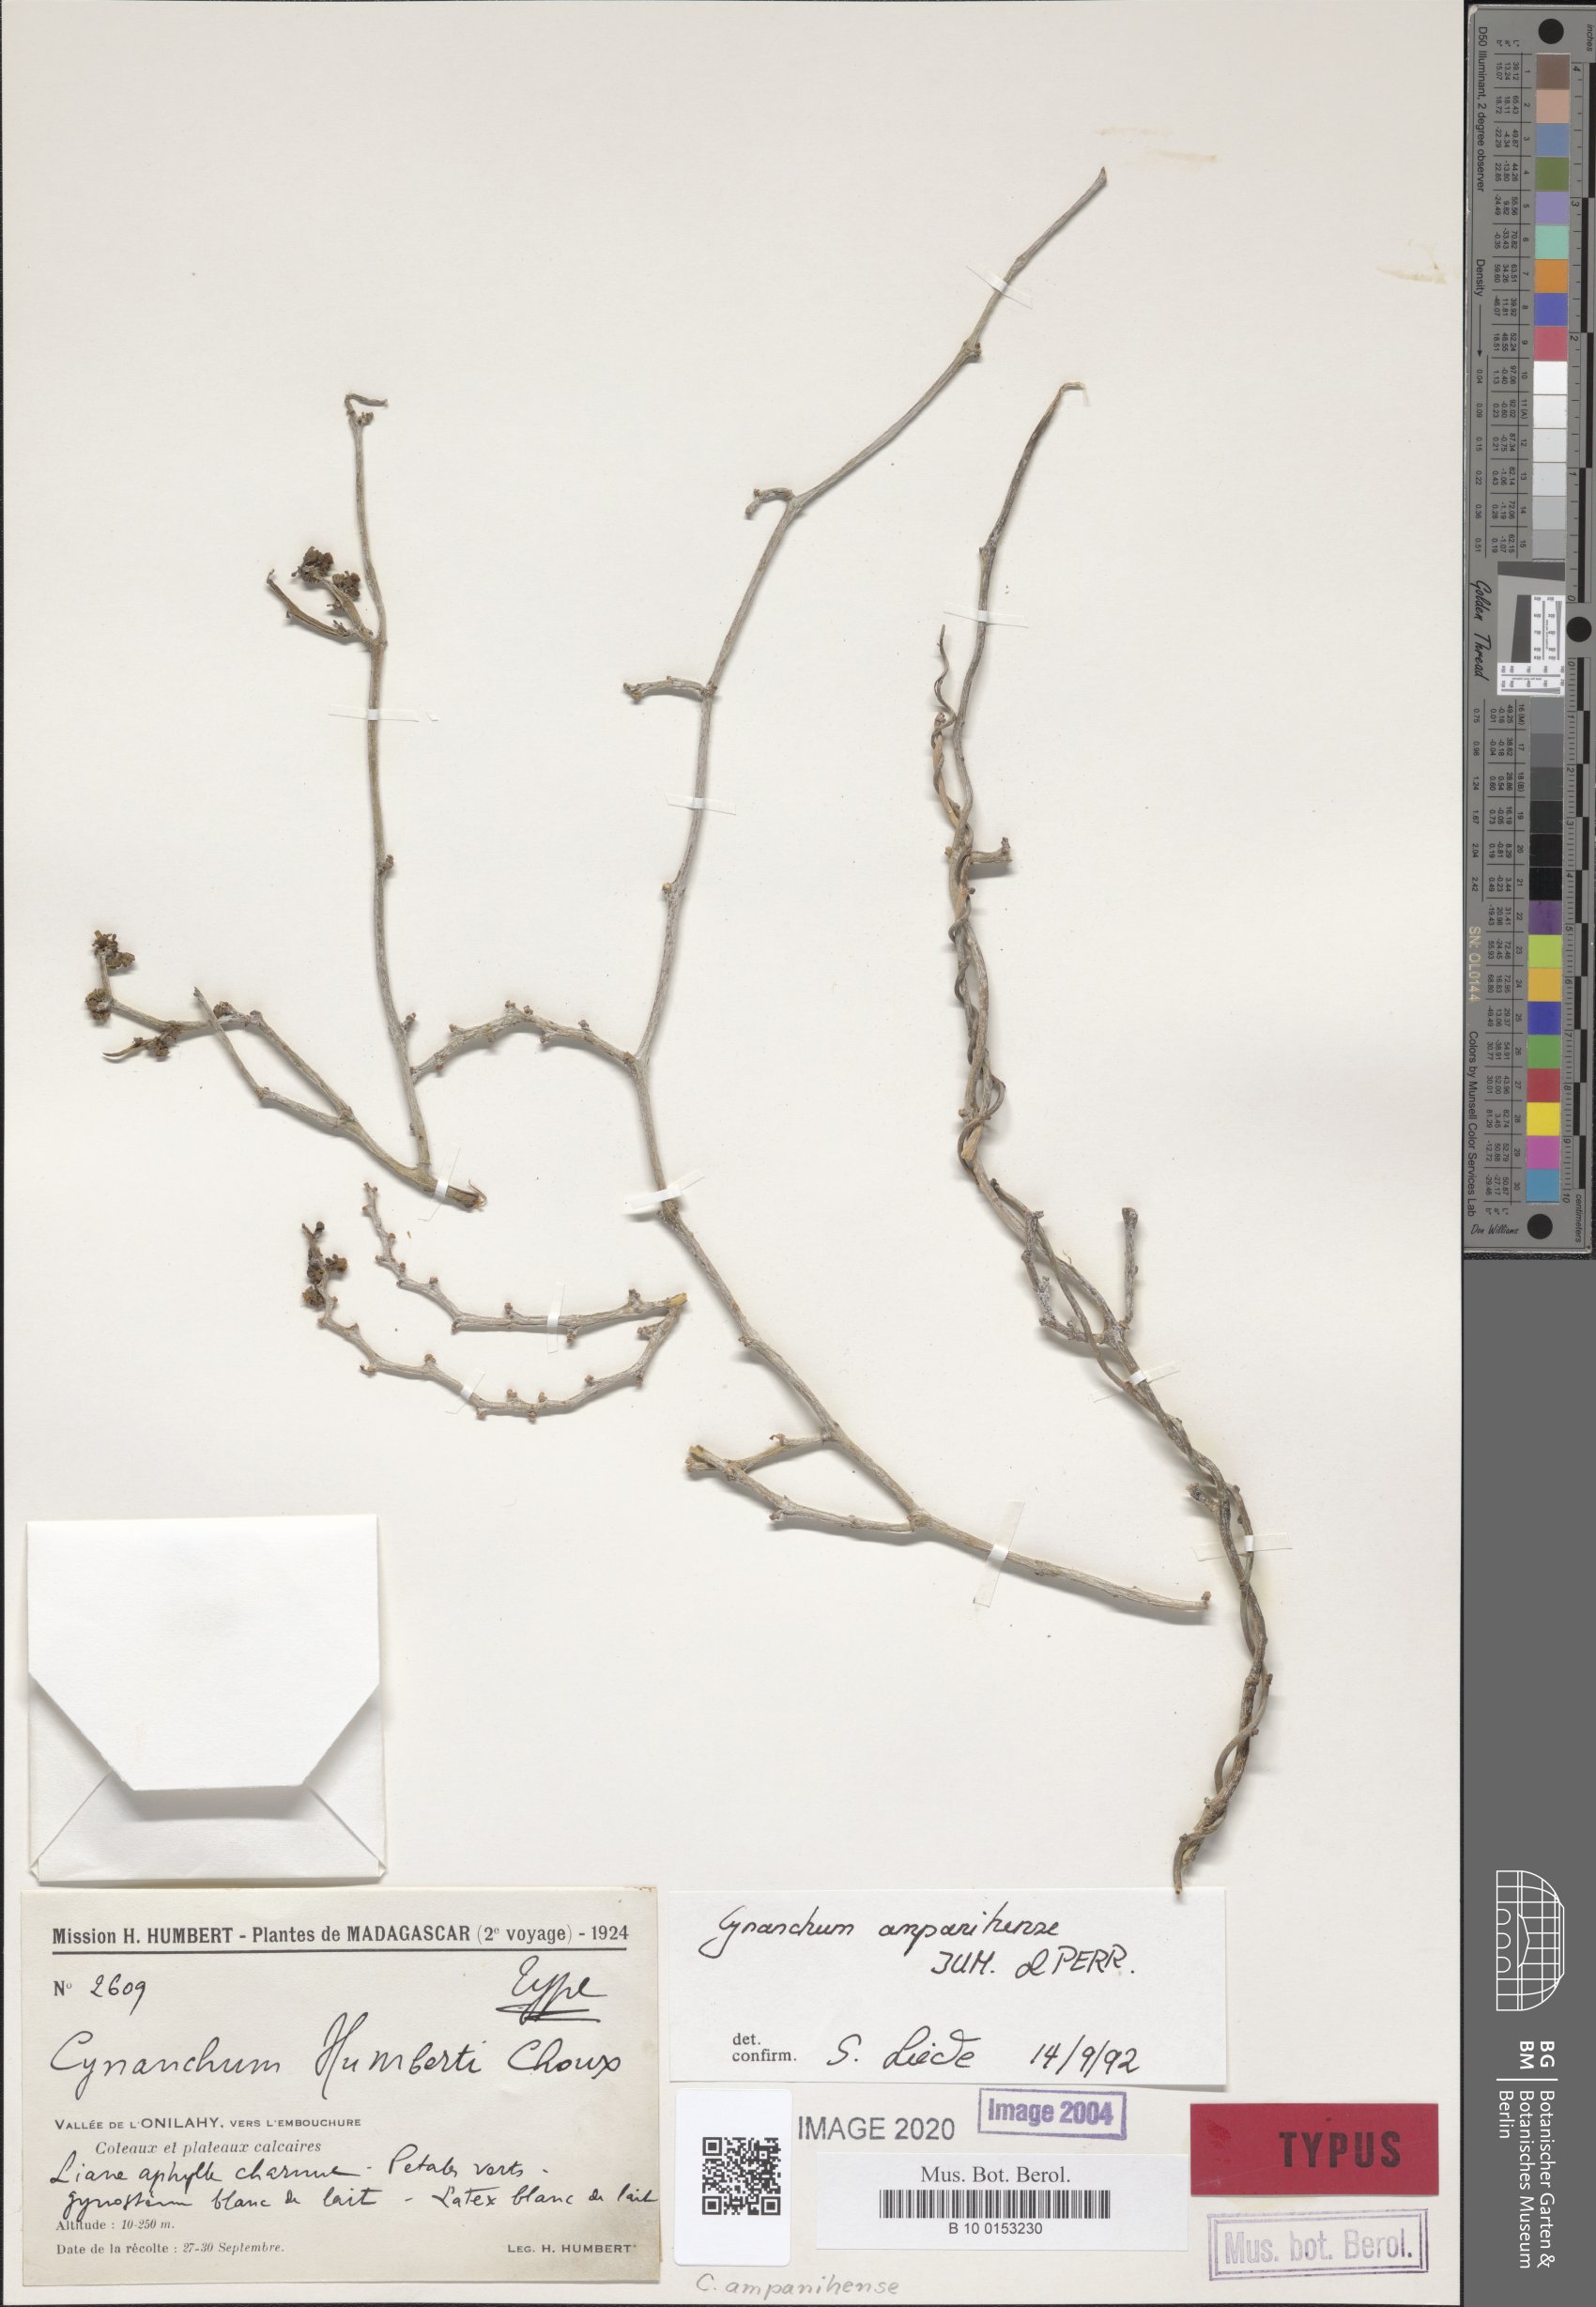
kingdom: Plantae
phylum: Tracheophyta
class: Magnoliopsida
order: Gentianales
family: Apocynaceae
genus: Cynanchum
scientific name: Cynanchum ampanihense
